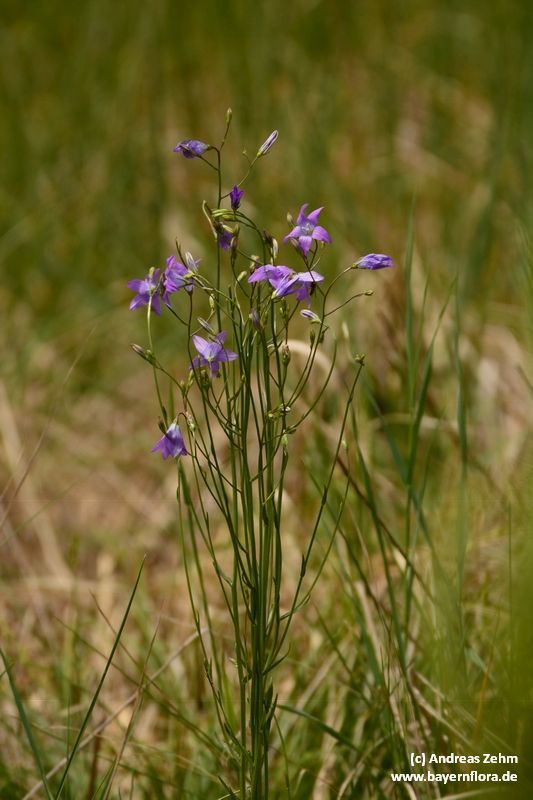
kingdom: Plantae
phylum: Tracheophyta
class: Magnoliopsida
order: Asterales
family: Campanulaceae
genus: Campanula
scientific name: Campanula patula
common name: Spreading bellflower
